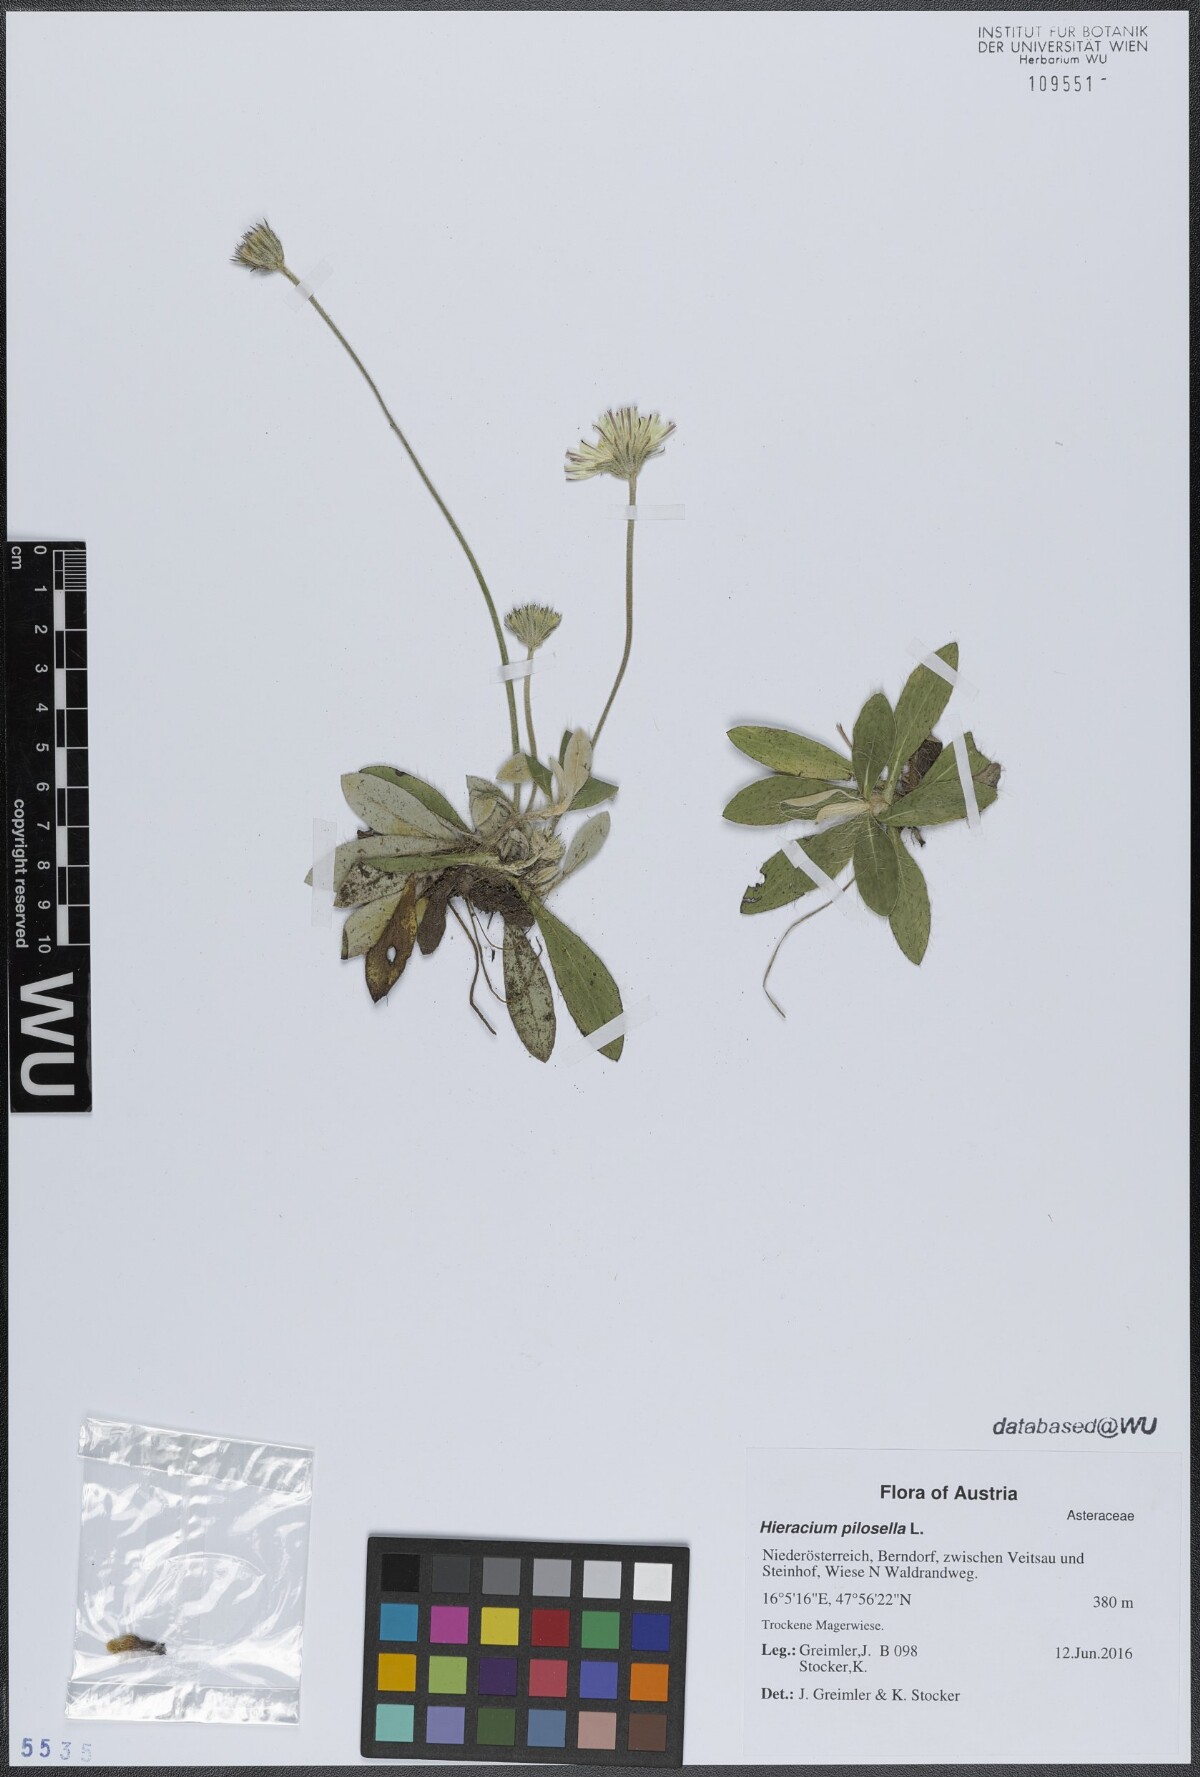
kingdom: Plantae
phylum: Tracheophyta
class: Magnoliopsida
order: Asterales
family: Asteraceae
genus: Pilosella
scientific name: Pilosella officinarum
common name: Mouse-ear hawkweed
